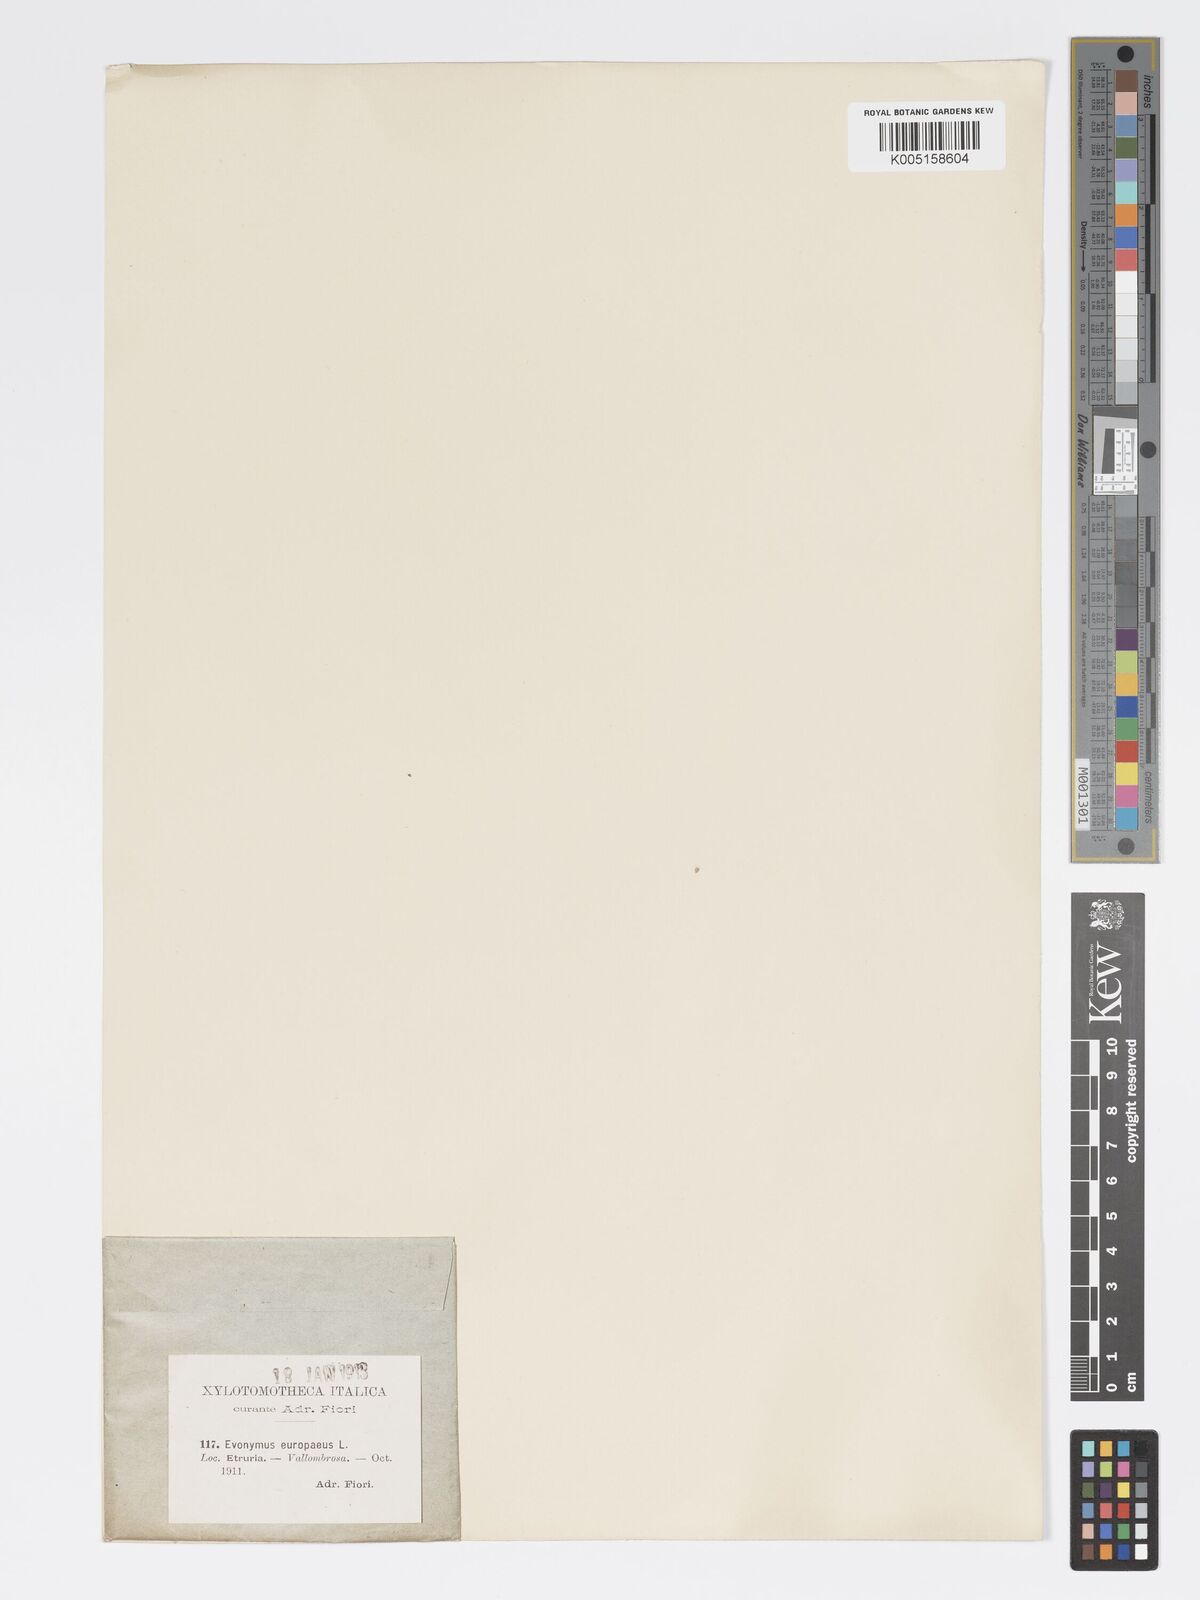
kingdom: Plantae
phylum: Tracheophyta
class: Magnoliopsida
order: Celastrales
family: Celastraceae
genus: Euonymus
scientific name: Euonymus europaeus
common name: Spindle
